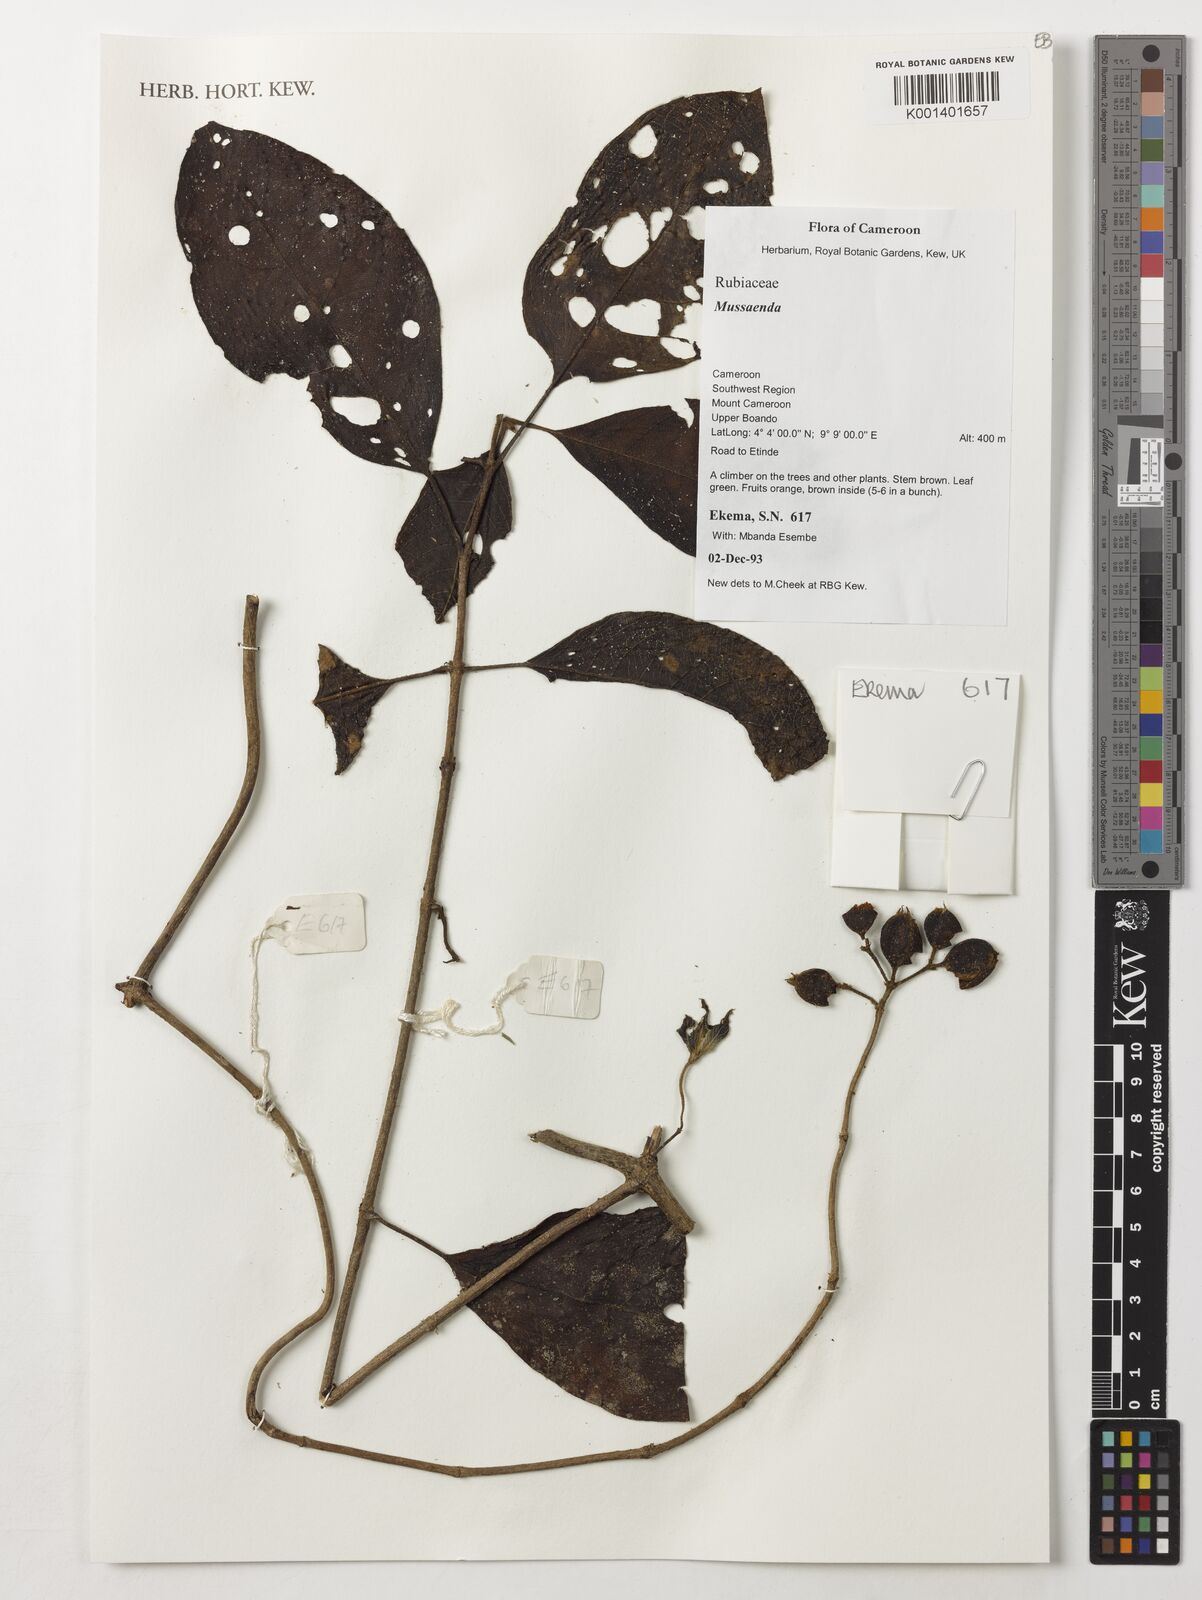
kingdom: Plantae
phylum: Tracheophyta
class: Magnoliopsida
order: Gentianales
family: Rubiaceae
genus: Mussaenda
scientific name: Mussaenda
